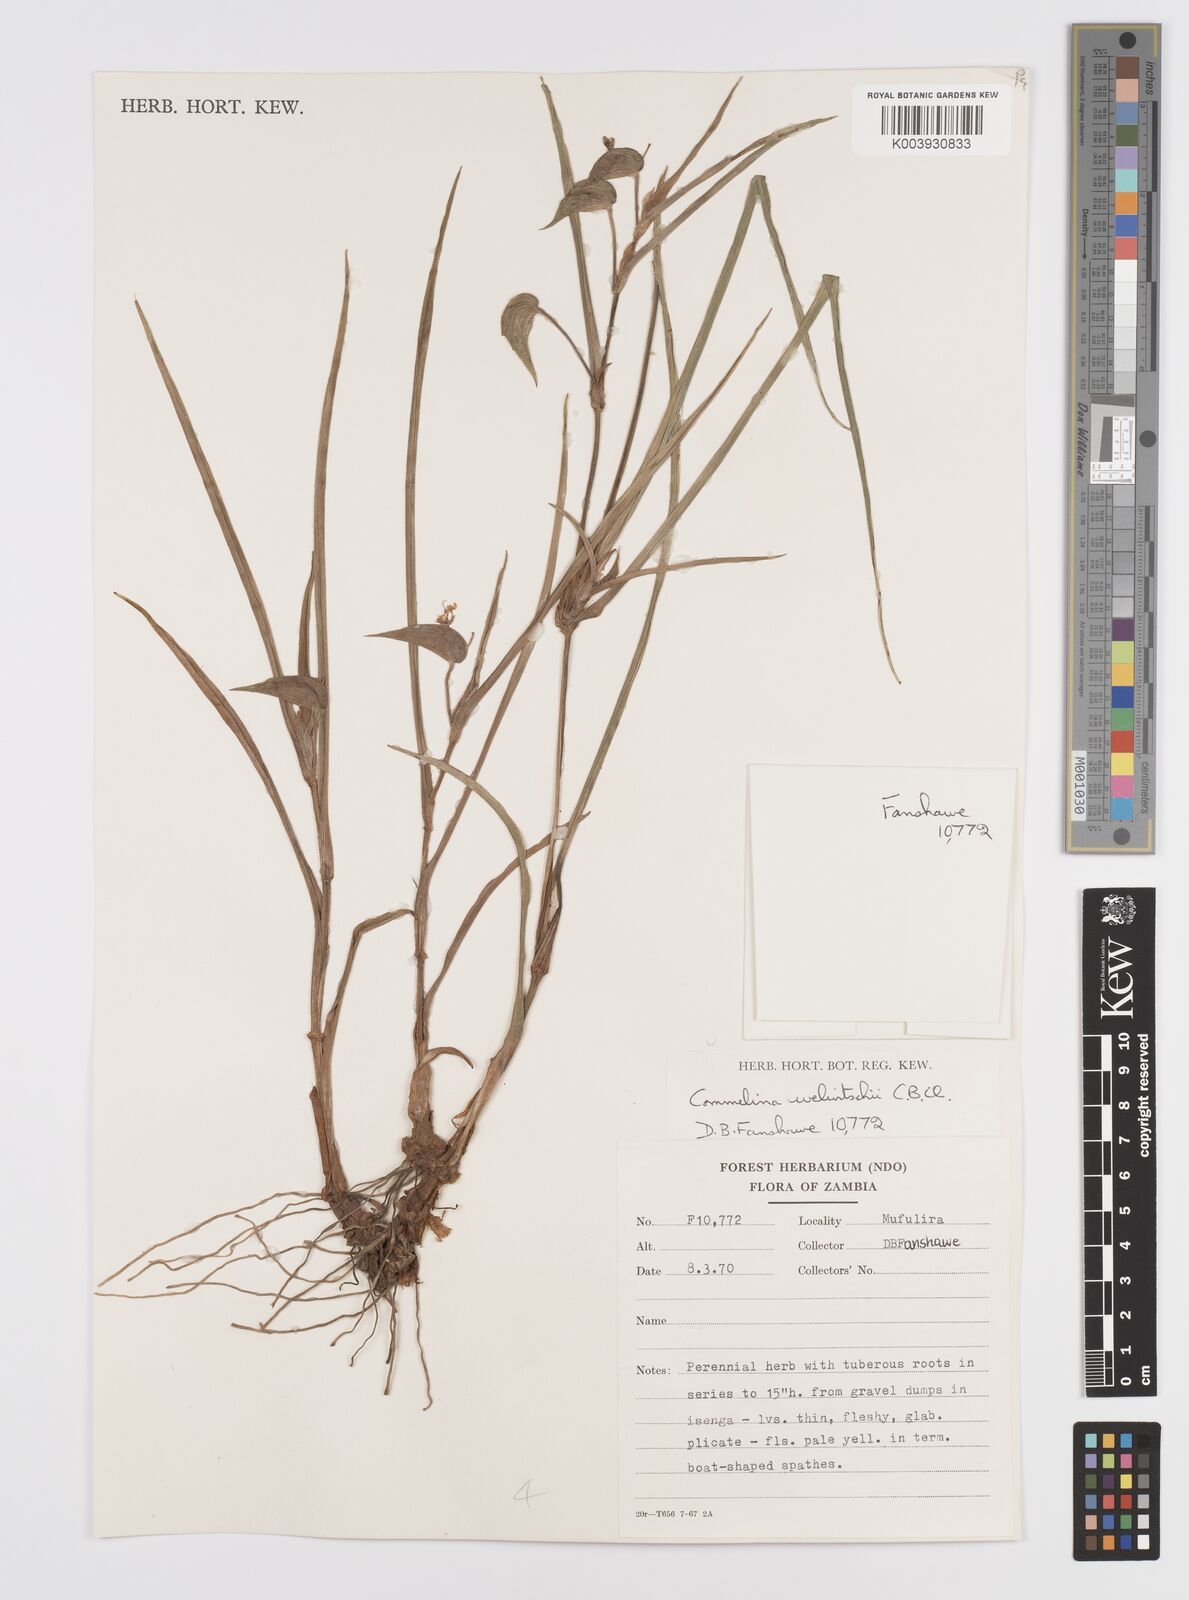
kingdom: Plantae
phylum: Tracheophyta
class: Liliopsida
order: Commelinales
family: Commelinaceae
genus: Commelina
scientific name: Commelina welwitschii
